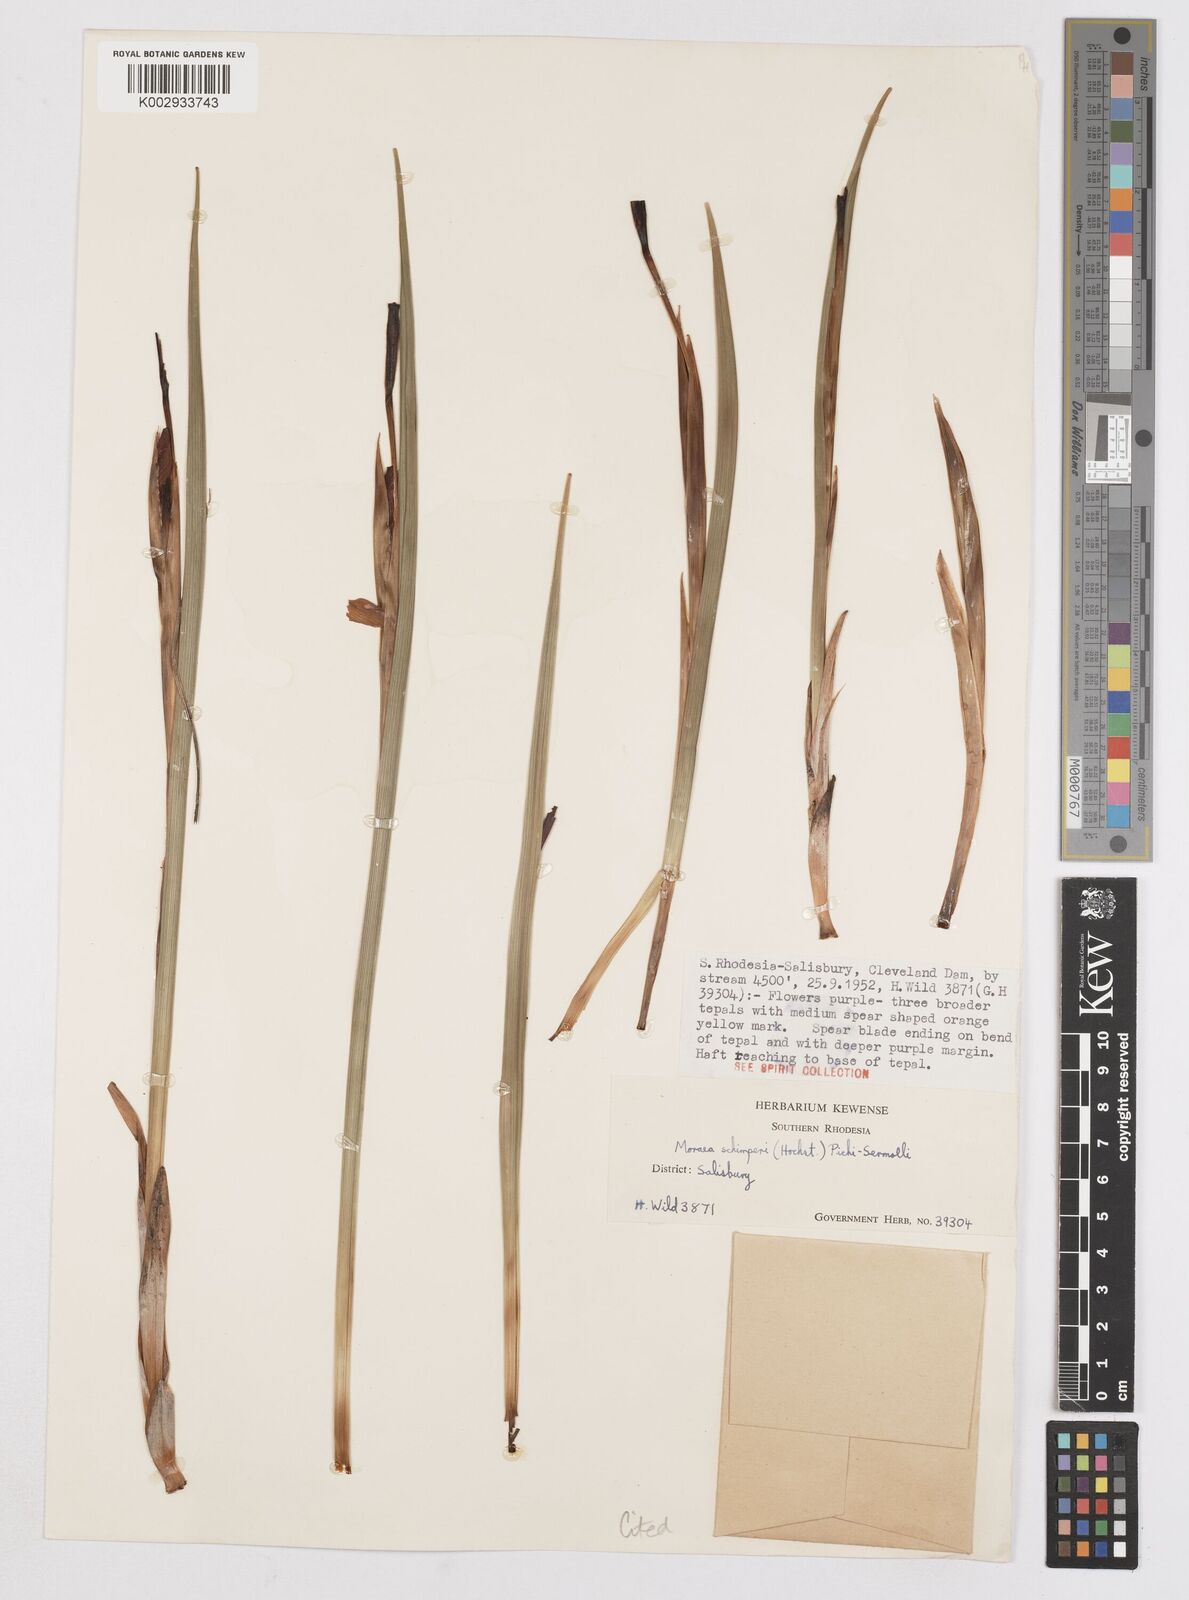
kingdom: Plantae
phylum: Tracheophyta
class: Liliopsida
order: Asparagales
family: Iridaceae
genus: Moraea
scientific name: Moraea schimperi
